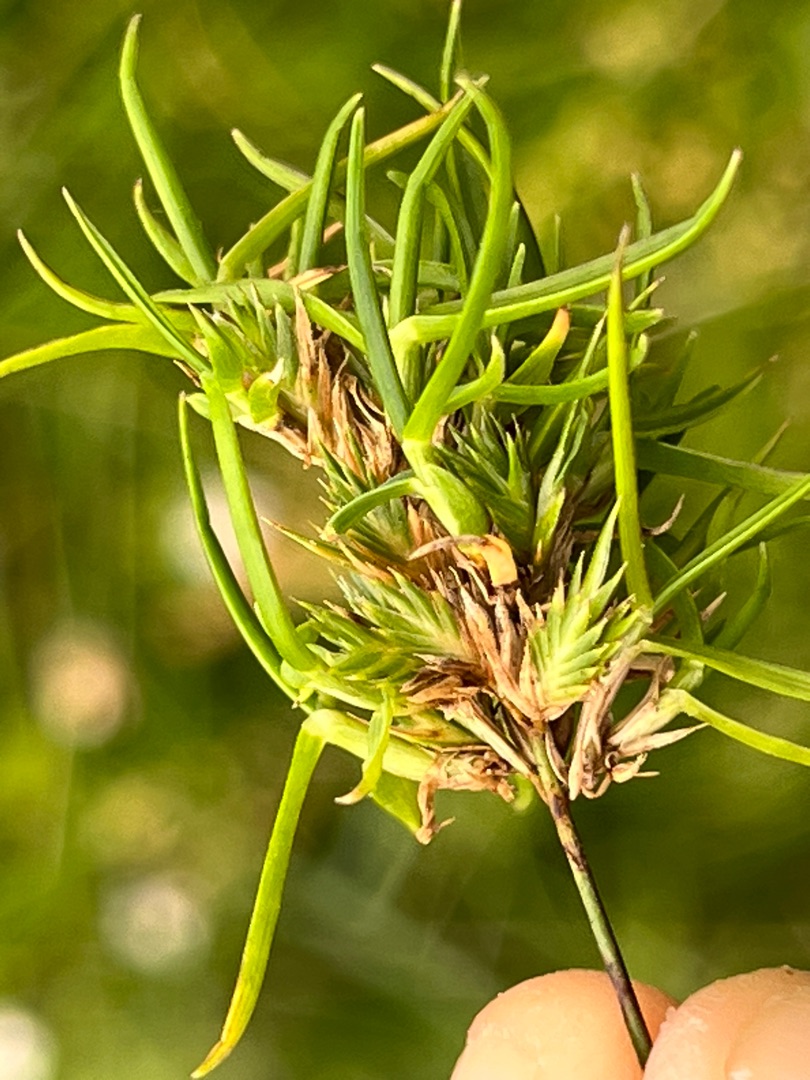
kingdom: Plantae
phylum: Tracheophyta
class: Liliopsida
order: Poales
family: Poaceae
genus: Cynosurus
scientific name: Cynosurus cristatus
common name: Kamgræs
